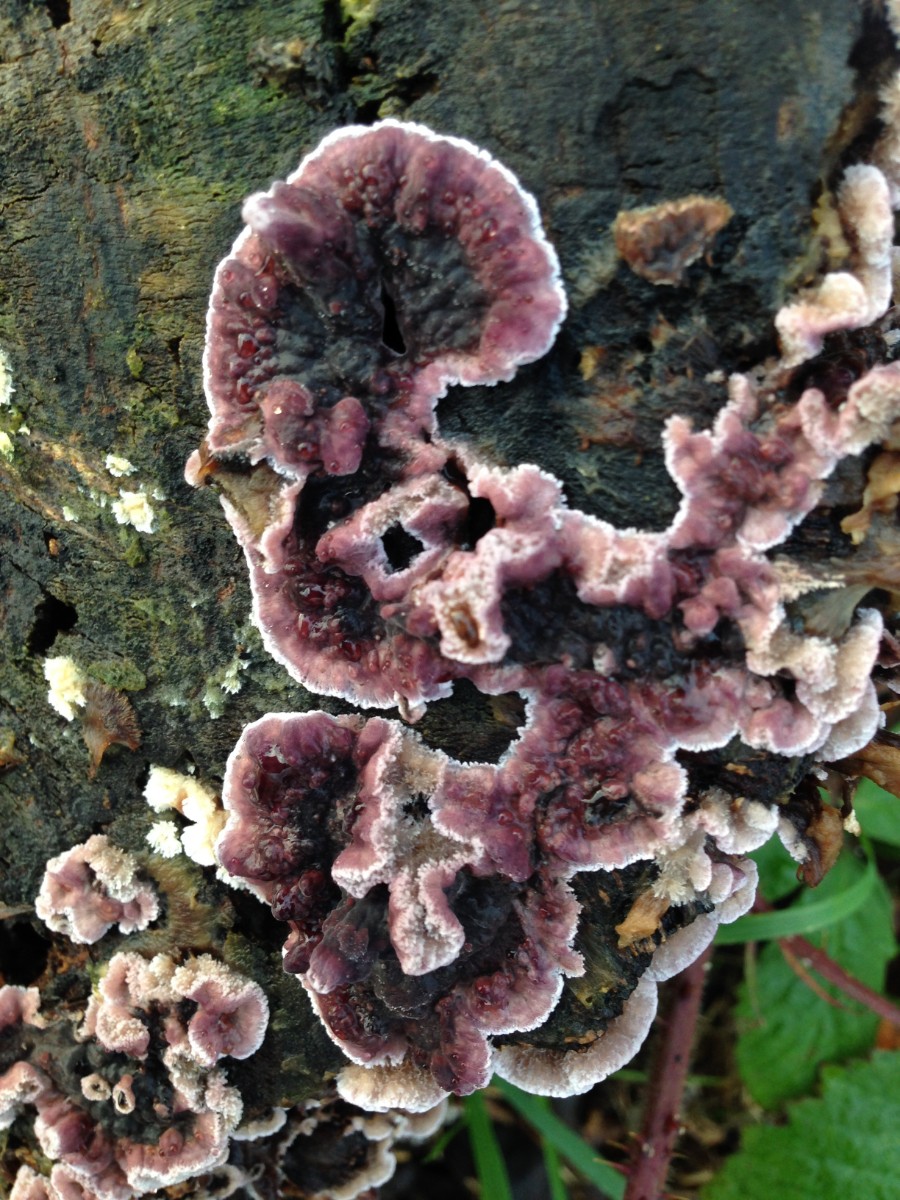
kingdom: Fungi
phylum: Basidiomycota
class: Agaricomycetes
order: Agaricales
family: Cyphellaceae
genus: Chondrostereum
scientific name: Chondrostereum purpureum
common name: purpurlædersvamp
